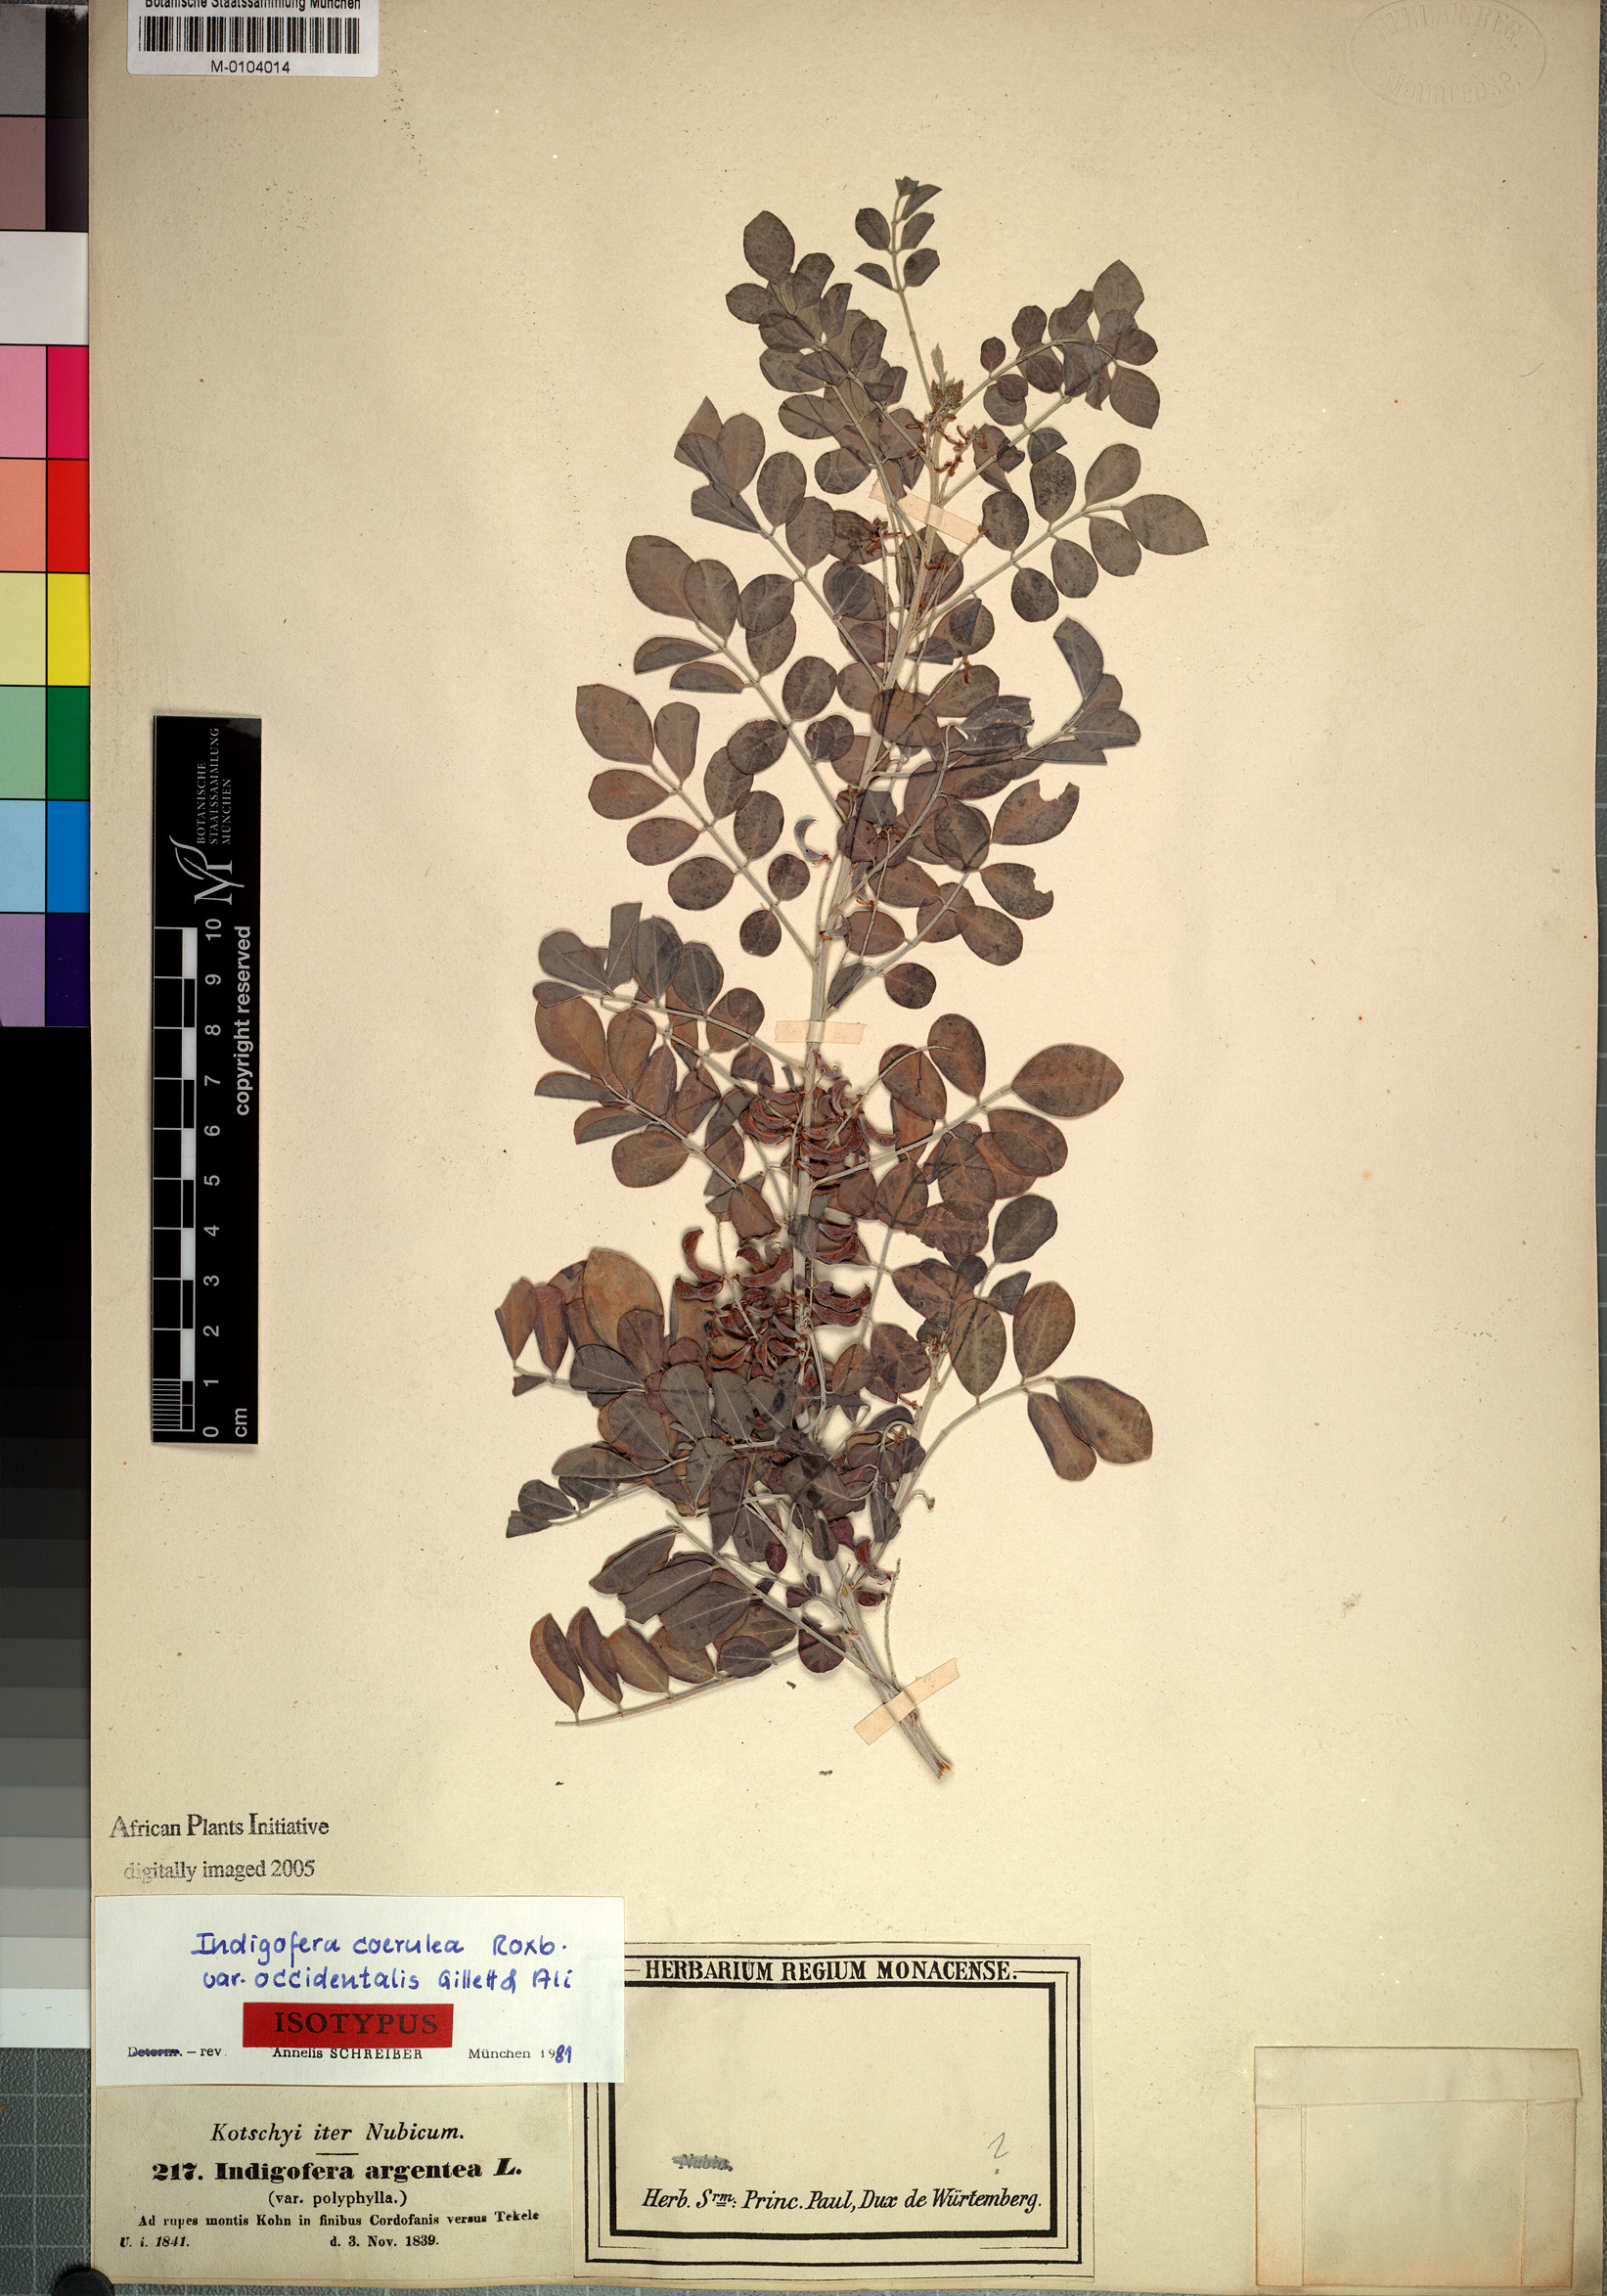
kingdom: Plantae
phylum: Tracheophyta
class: Magnoliopsida
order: Fabales
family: Fabaceae
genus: Indigofera
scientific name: Indigofera coerulea
